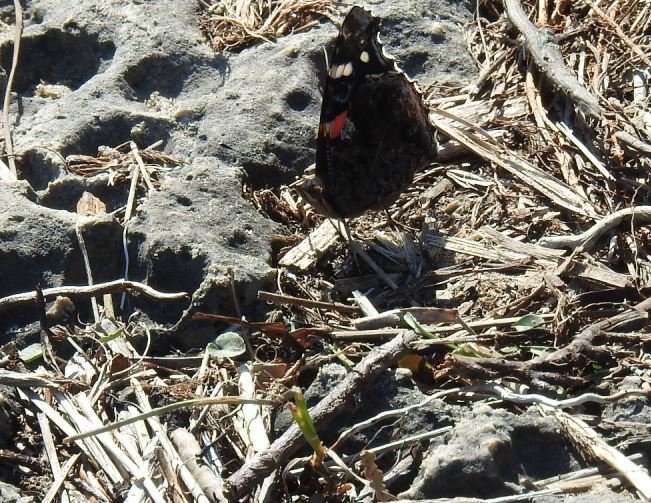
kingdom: Animalia
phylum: Arthropoda
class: Insecta
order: Lepidoptera
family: Nymphalidae
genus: Vanessa
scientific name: Vanessa atalanta
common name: Red Admiral
